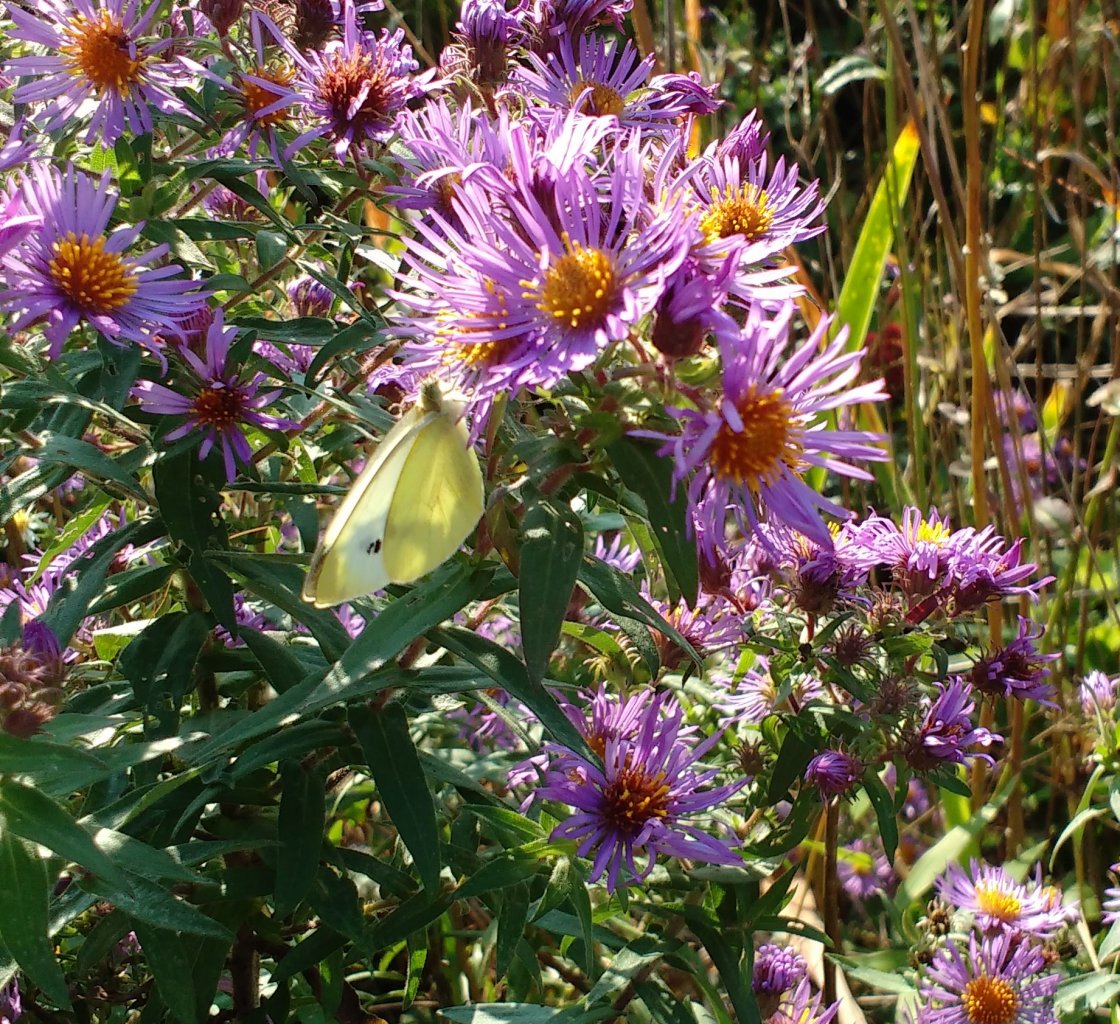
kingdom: Animalia
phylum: Arthropoda
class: Insecta
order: Lepidoptera
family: Pieridae
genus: Pieris
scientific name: Pieris rapae
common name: Cabbage White
